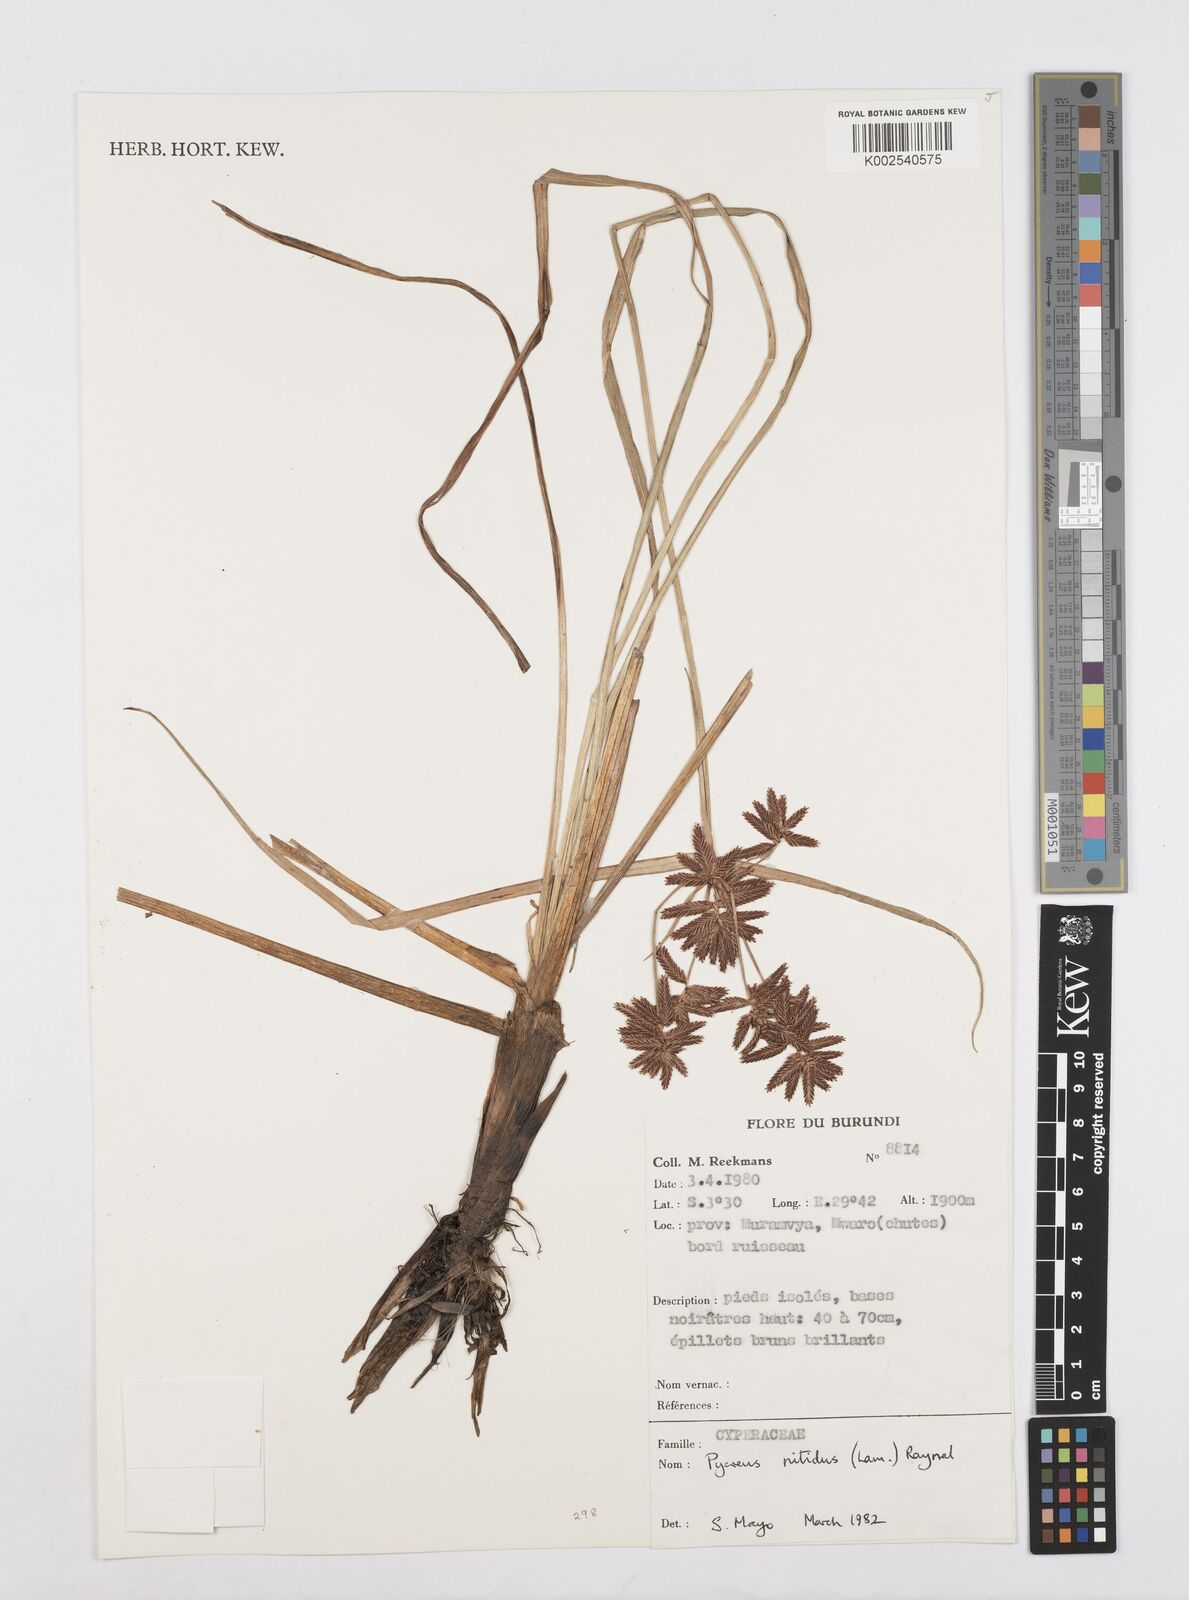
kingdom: Plantae
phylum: Tracheophyta
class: Liliopsida
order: Poales
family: Cyperaceae
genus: Cyperus
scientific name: Cyperus nitidus
